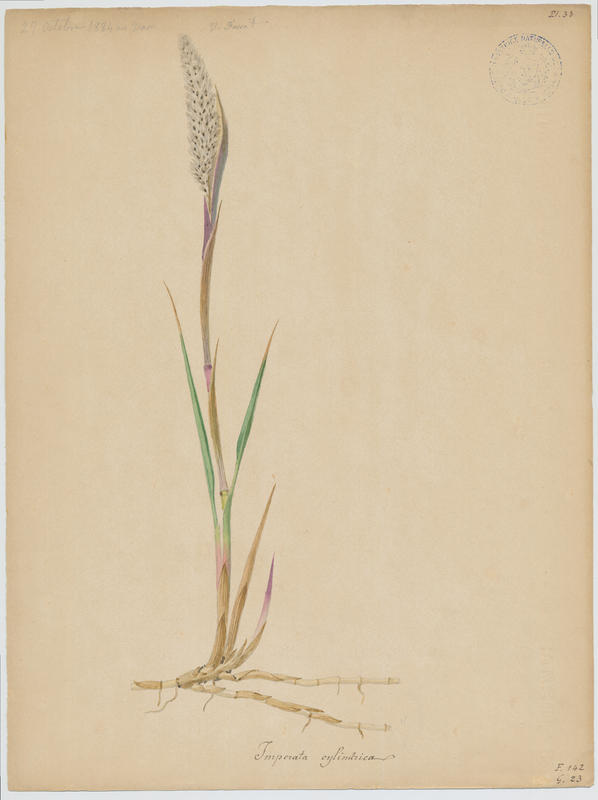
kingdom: Plantae
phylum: Tracheophyta
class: Liliopsida
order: Poales
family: Poaceae
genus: Imperata
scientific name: Imperata cylindrica
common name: Cogongrass
